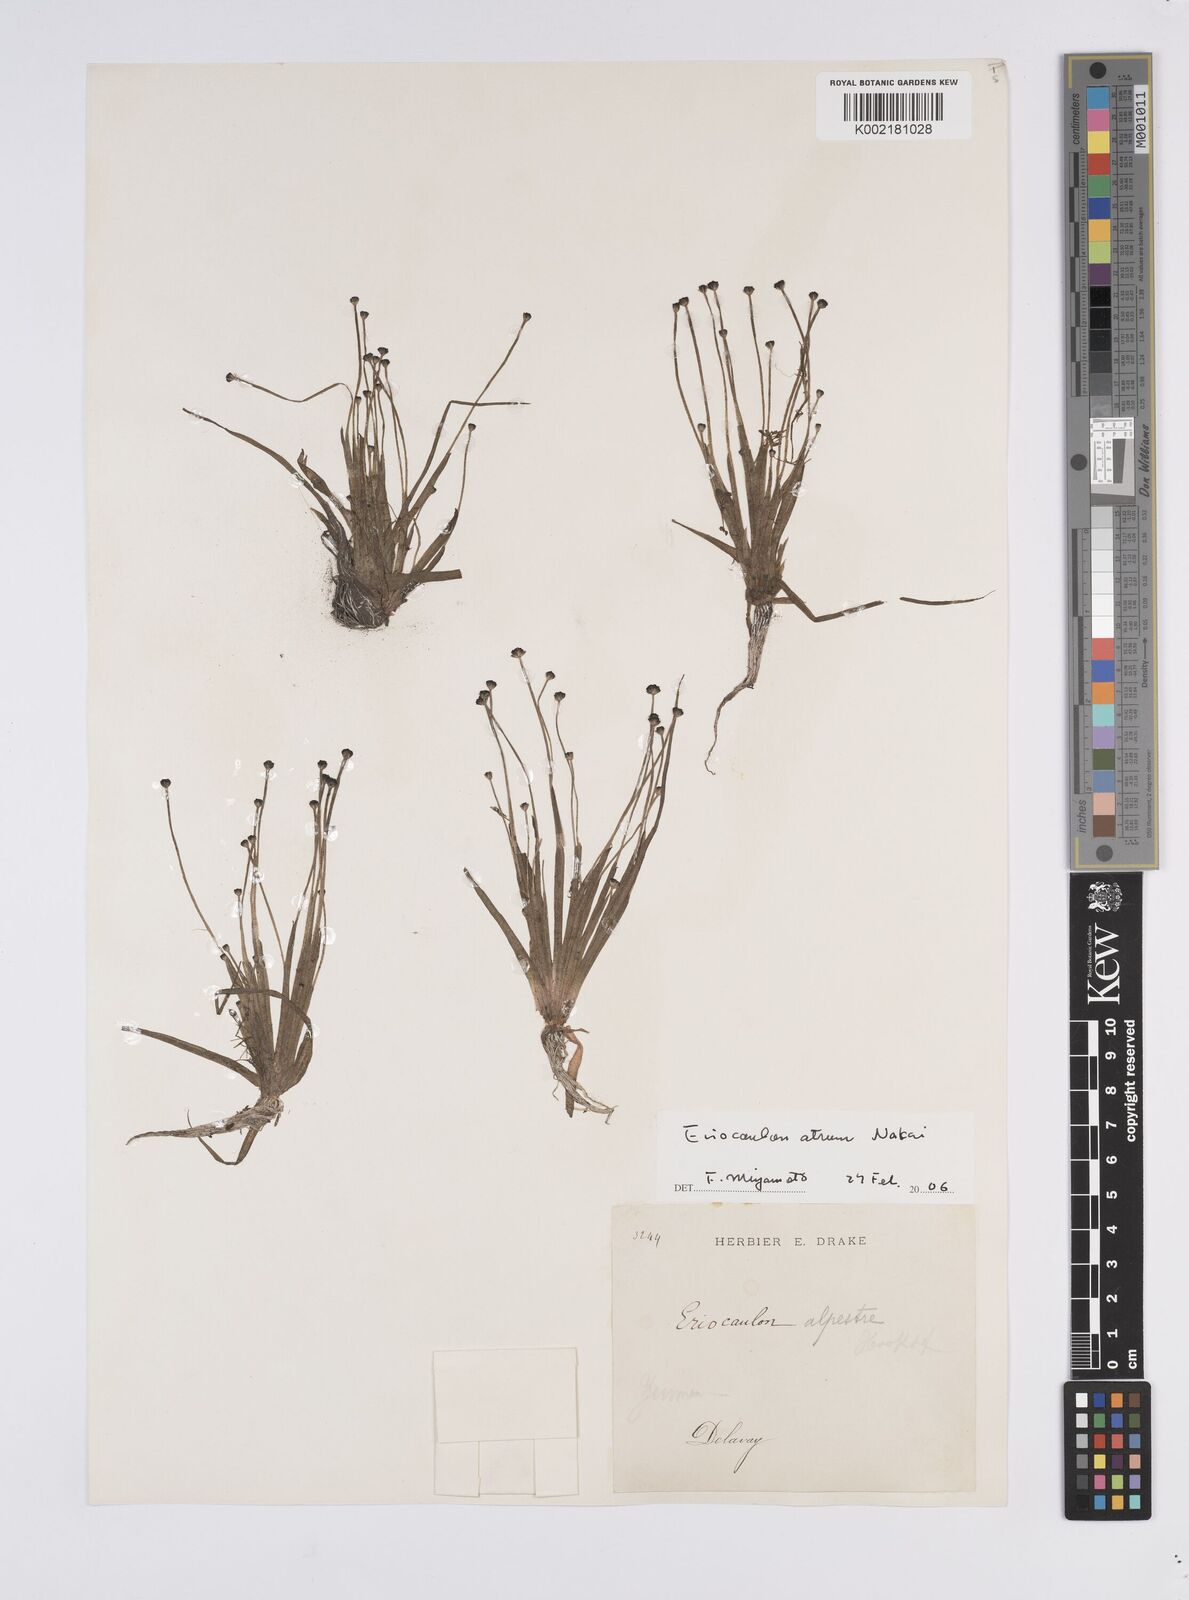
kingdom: Plantae
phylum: Tracheophyta
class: Liliopsida
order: Poales
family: Eriocaulaceae
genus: Eriocaulon
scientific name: Eriocaulon alpestre
